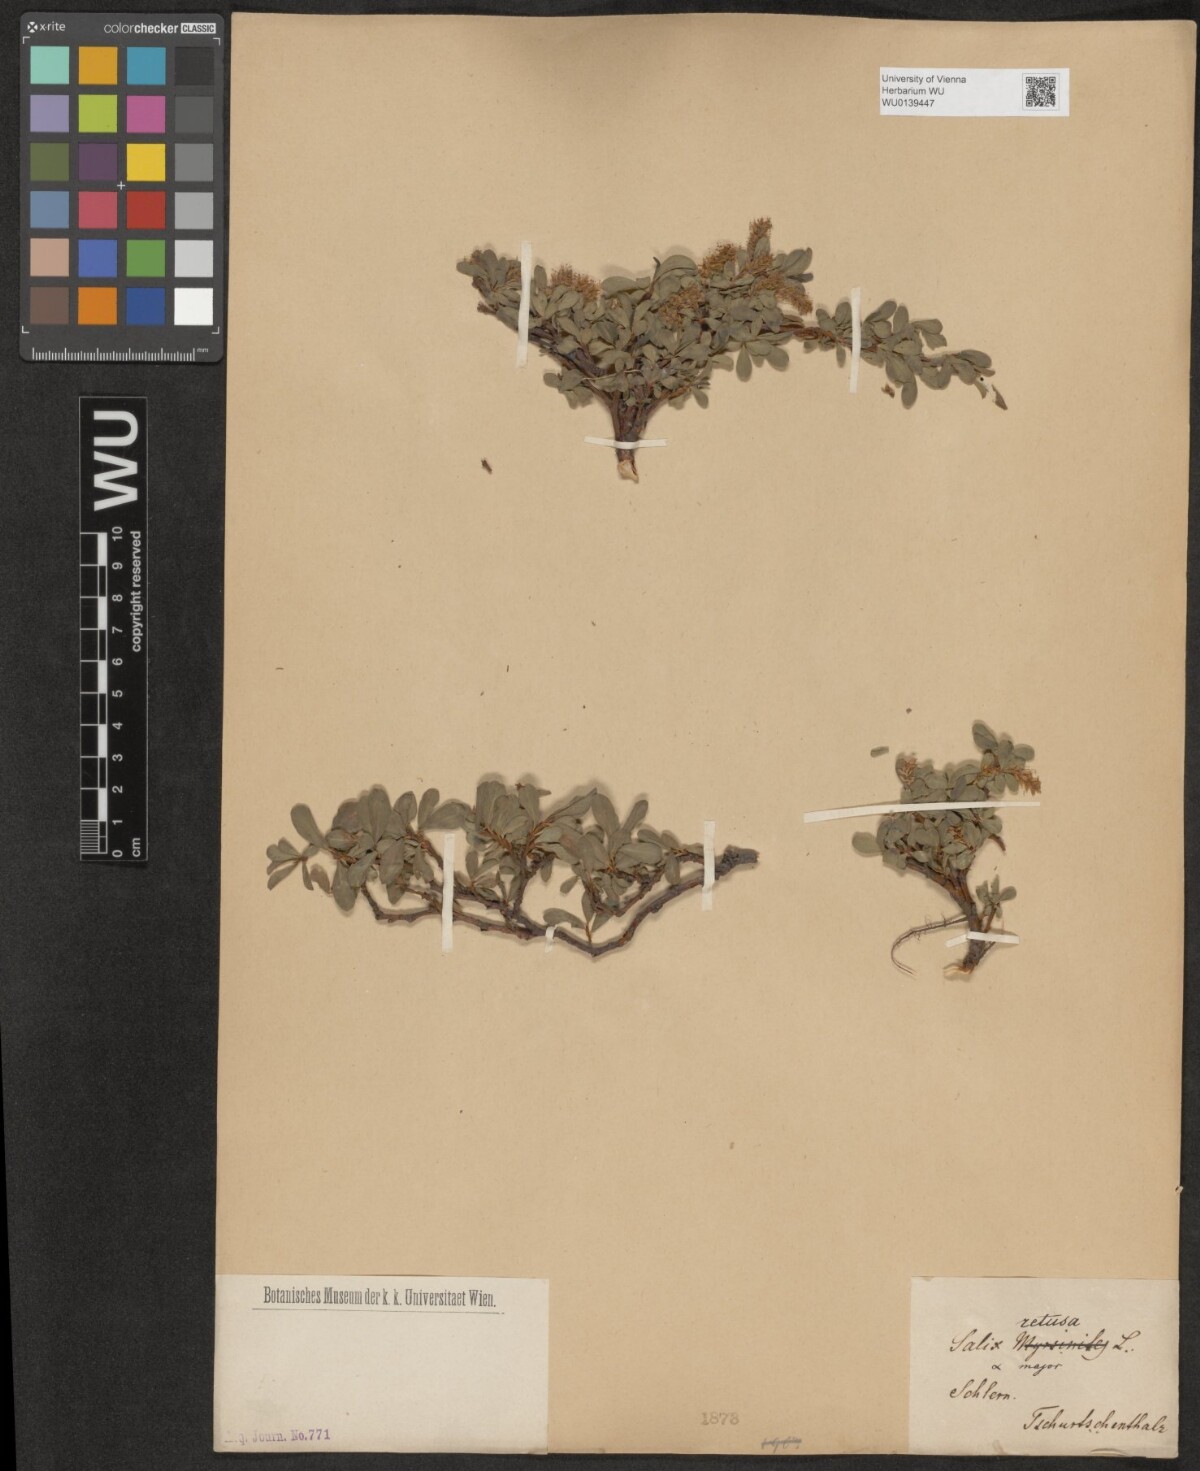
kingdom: Plantae
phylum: Tracheophyta
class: Magnoliopsida
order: Malpighiales
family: Salicaceae
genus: Salix
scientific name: Salix retusa
